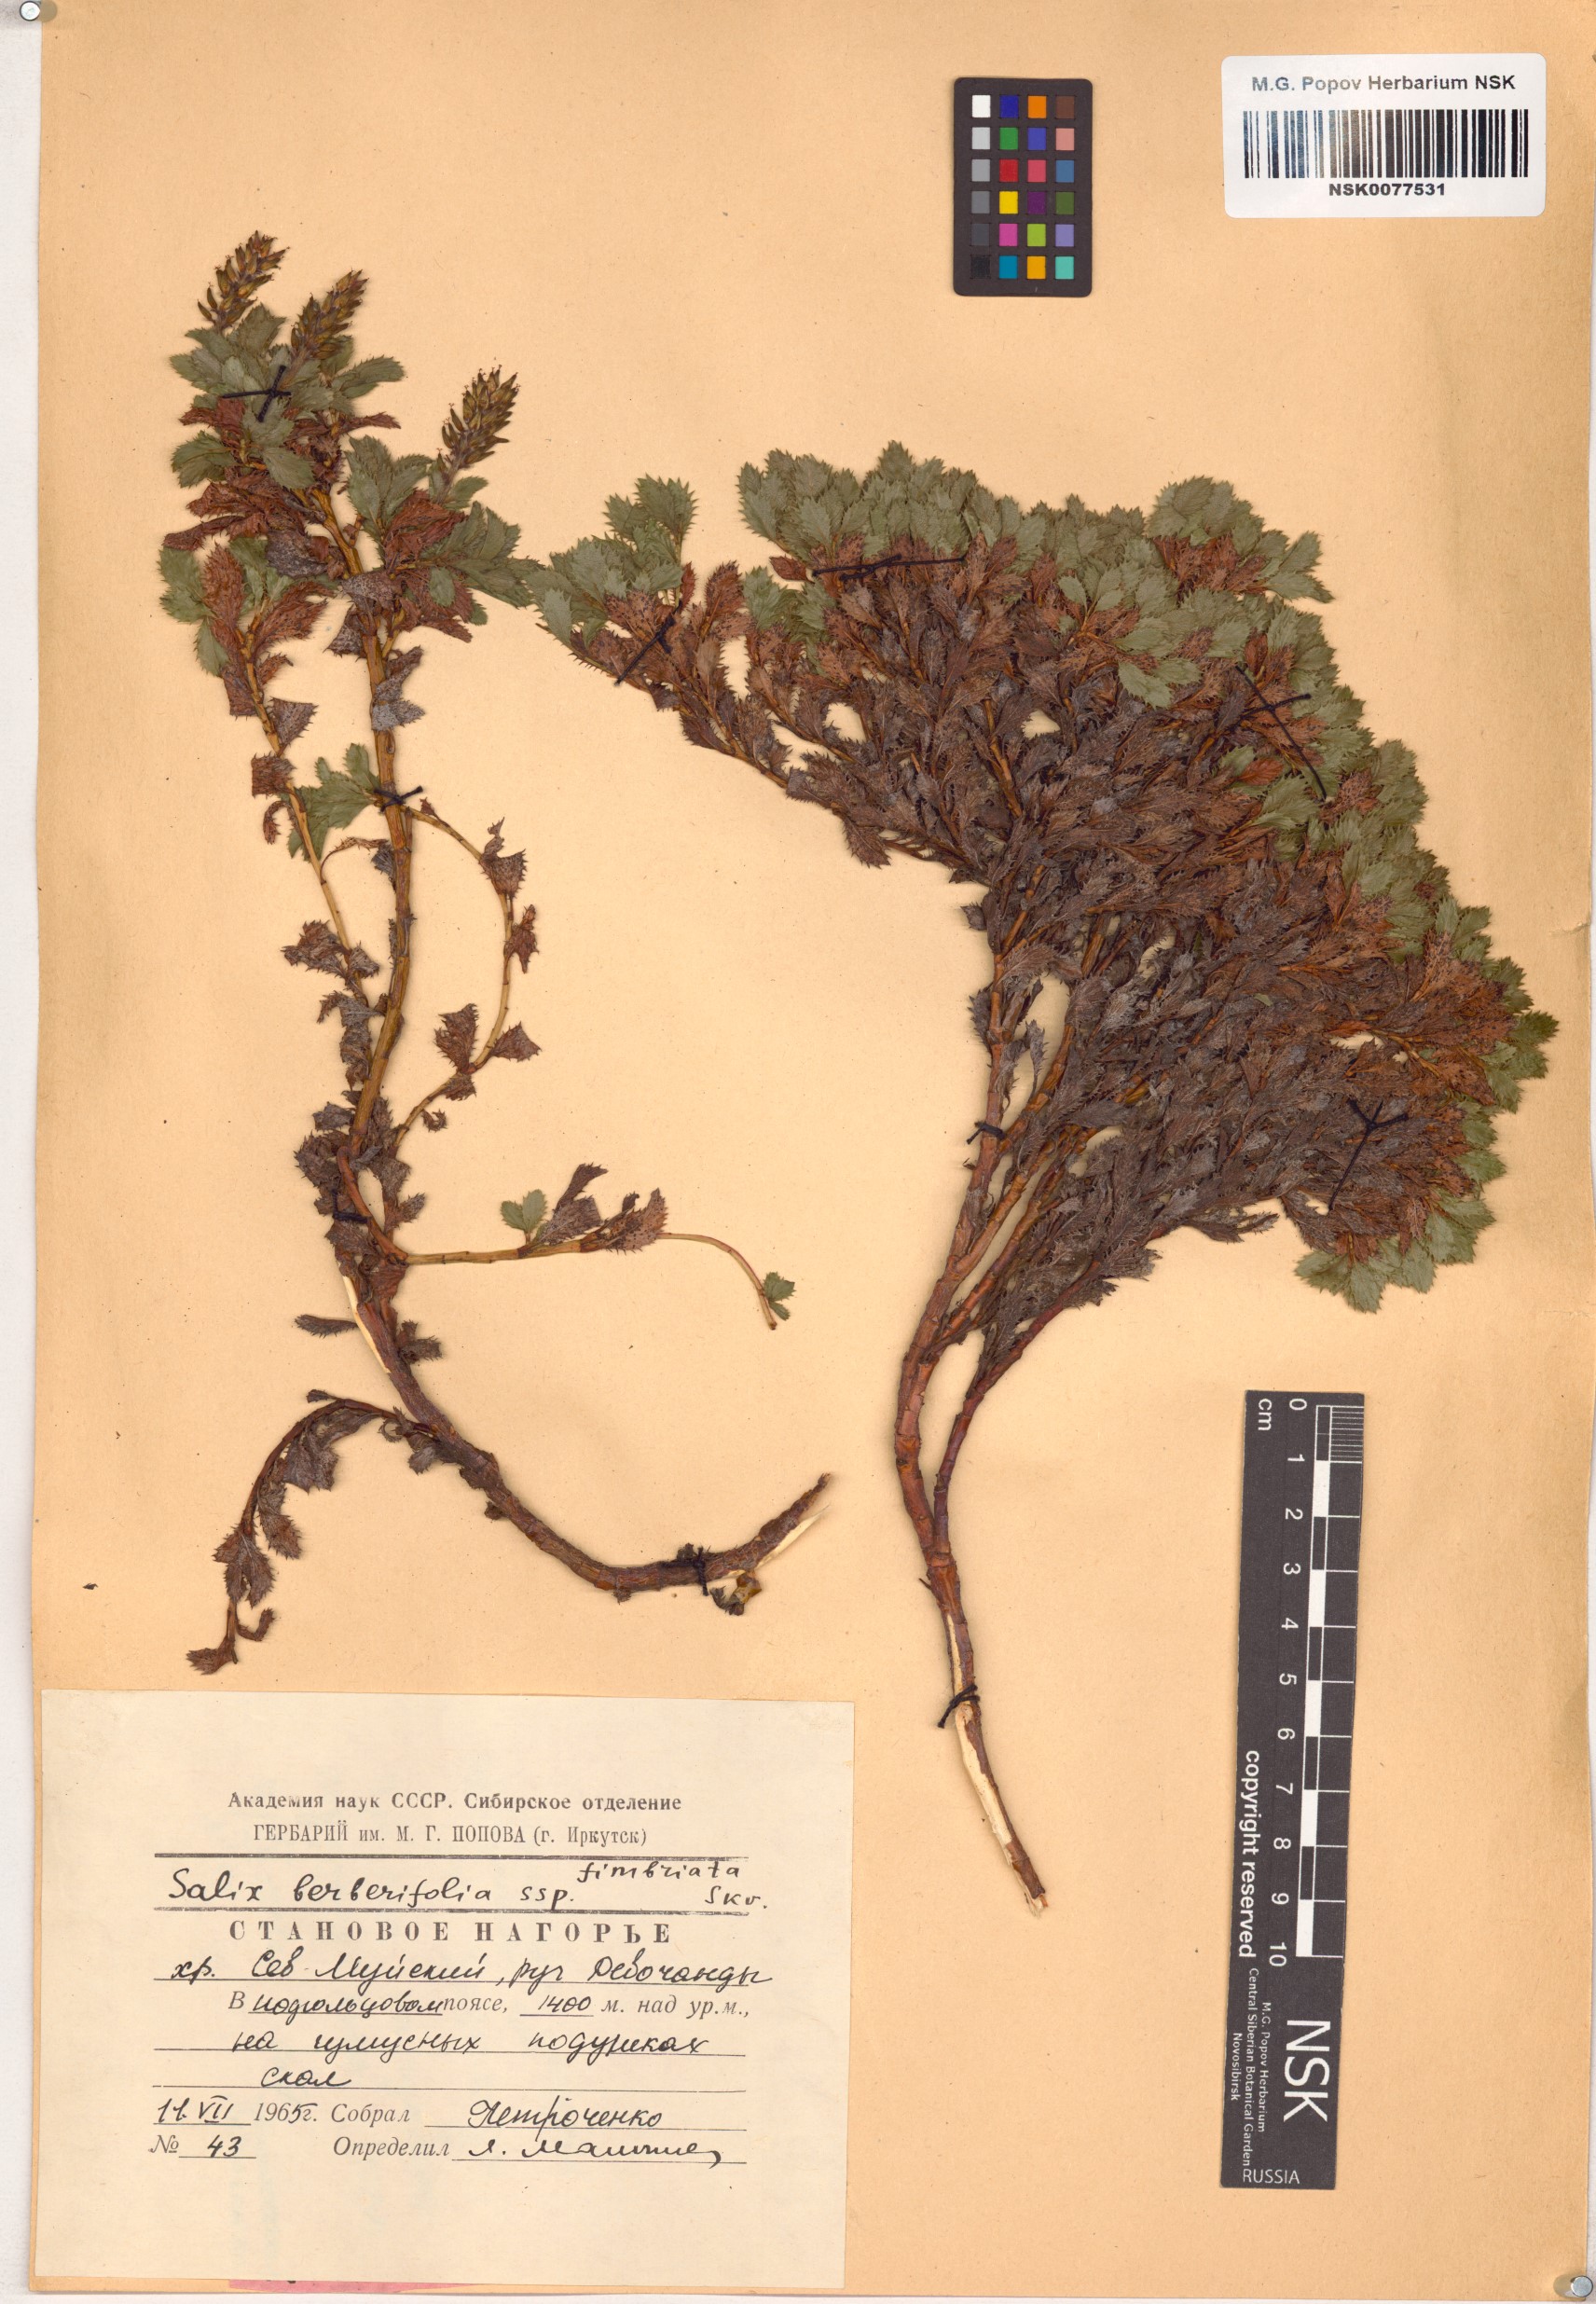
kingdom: Plantae
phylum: Tracheophyta
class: Magnoliopsida
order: Malpighiales
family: Salicaceae
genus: Salix
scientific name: Salix berberifolia
